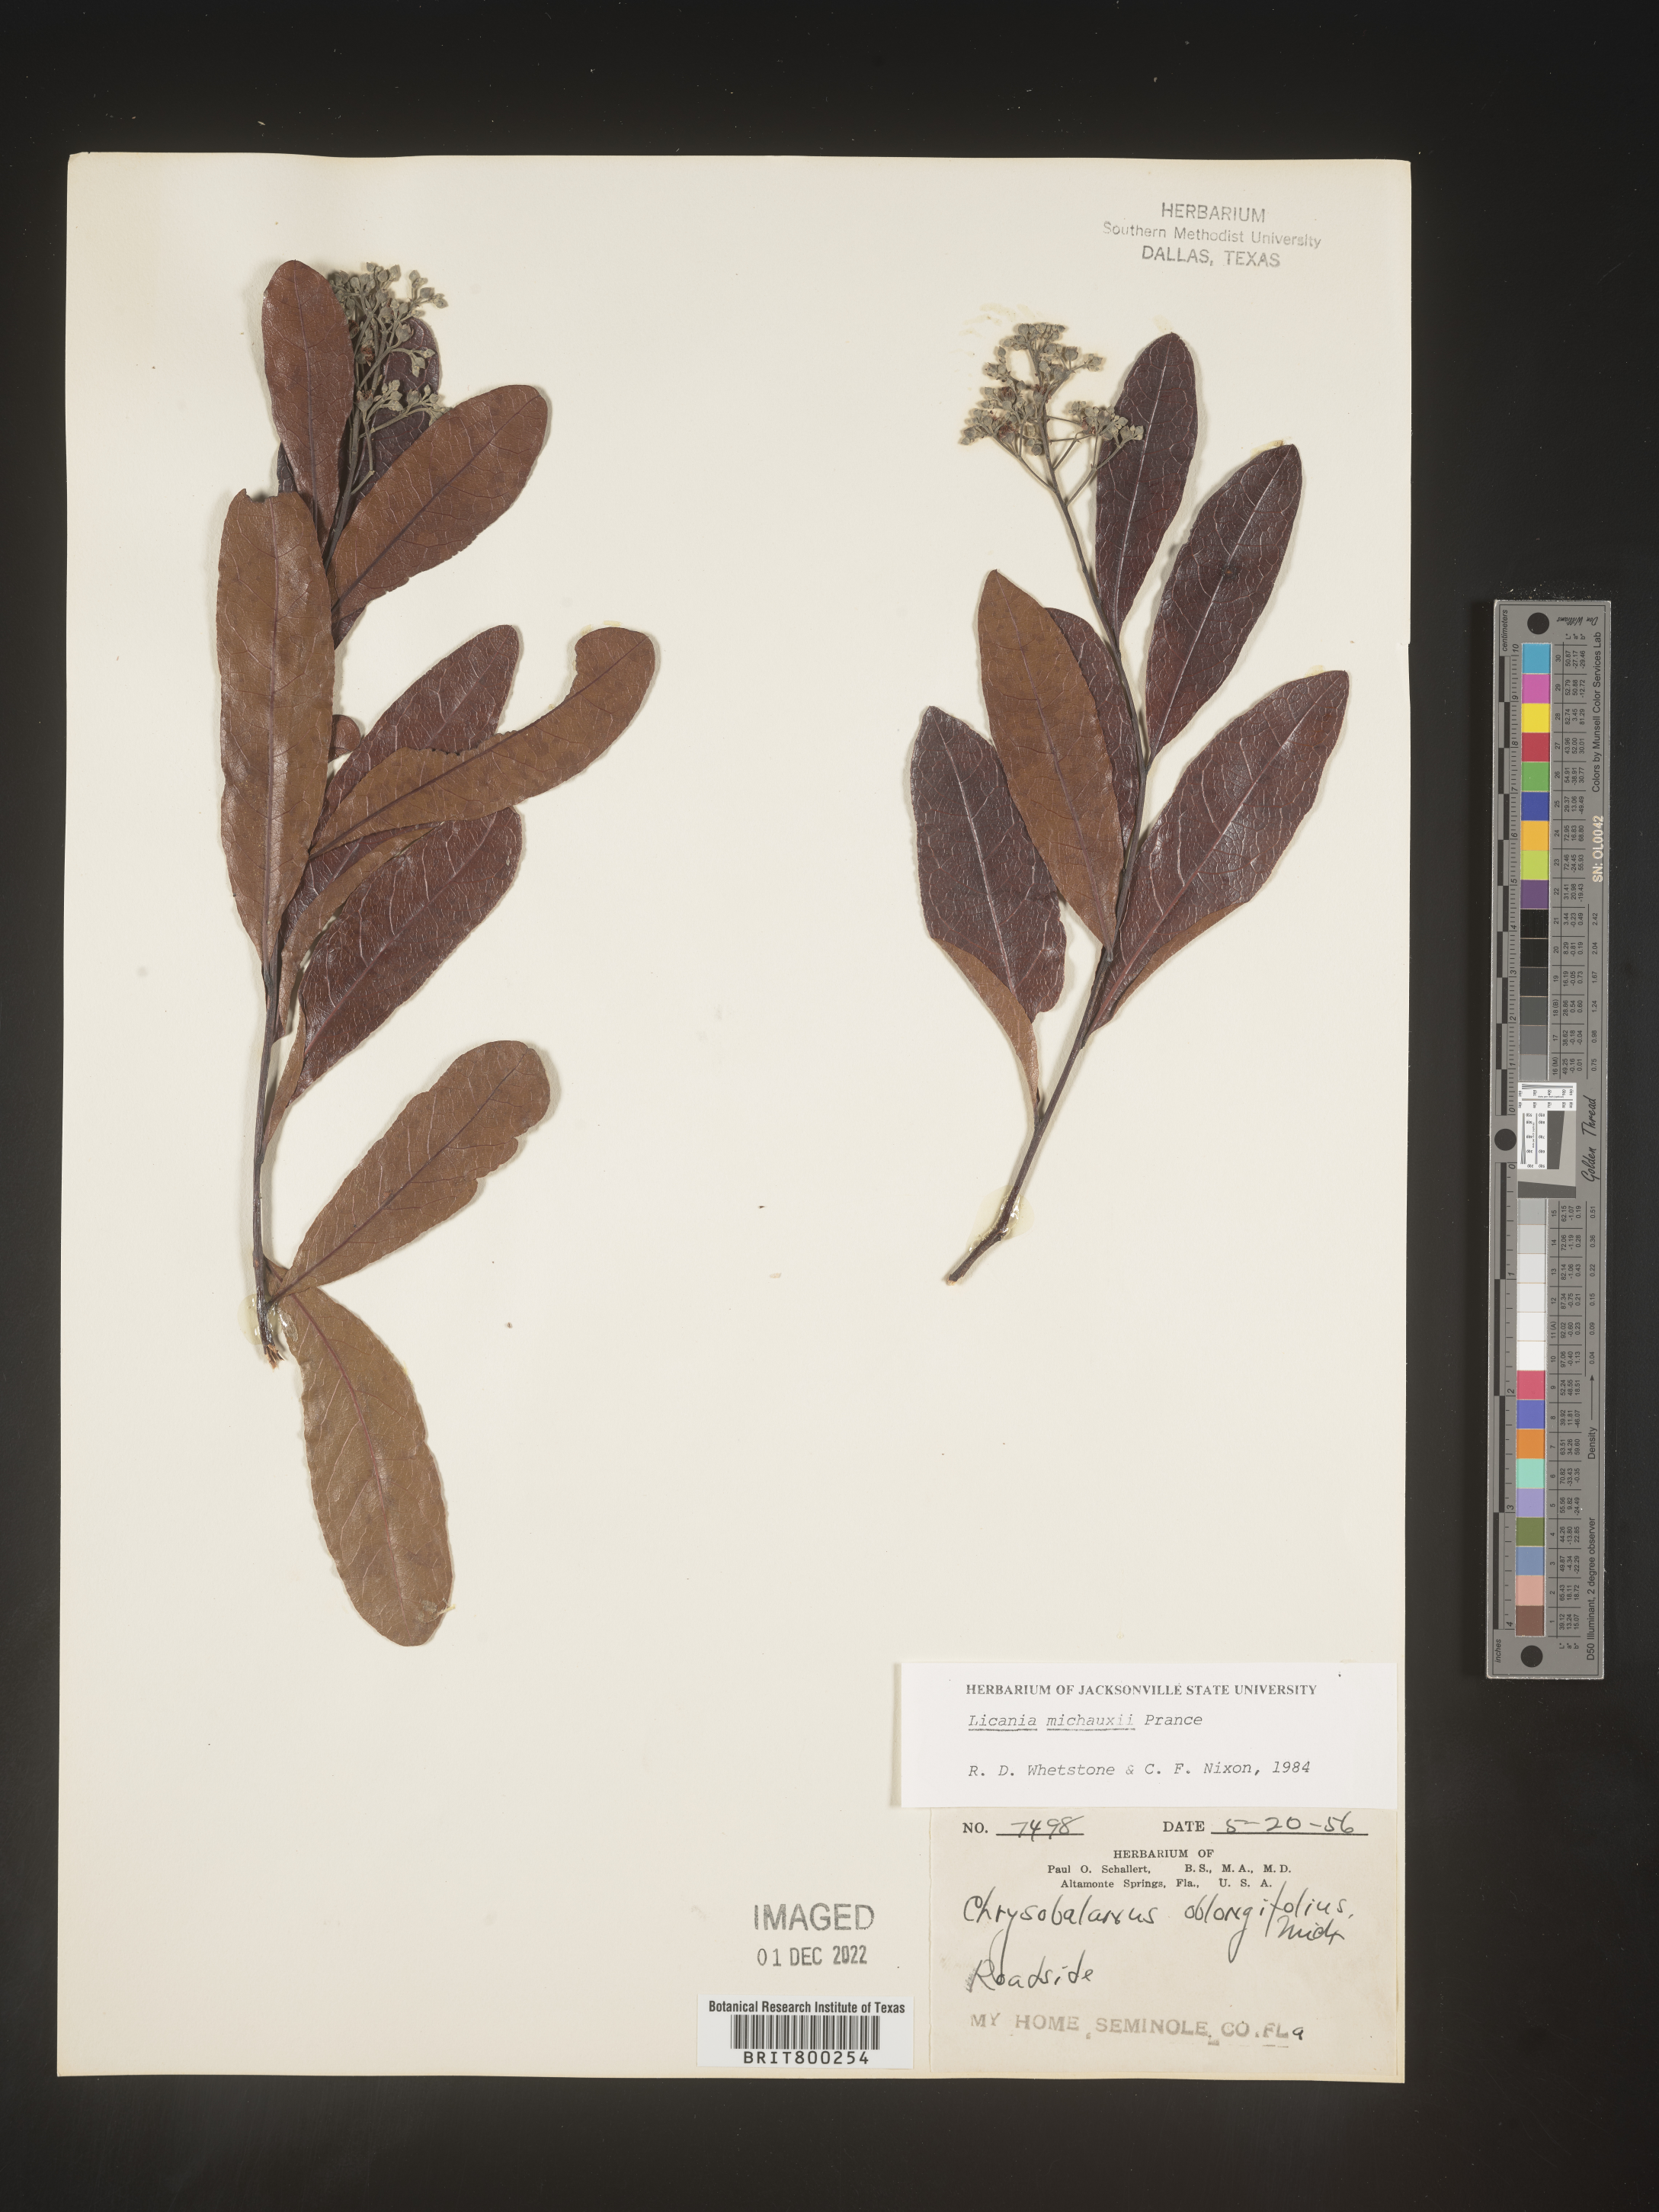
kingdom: Plantae
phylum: Tracheophyta
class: Magnoliopsida
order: Malpighiales
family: Chrysobalanaceae
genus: Geobalanus
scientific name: Geobalanus oblongifolius
